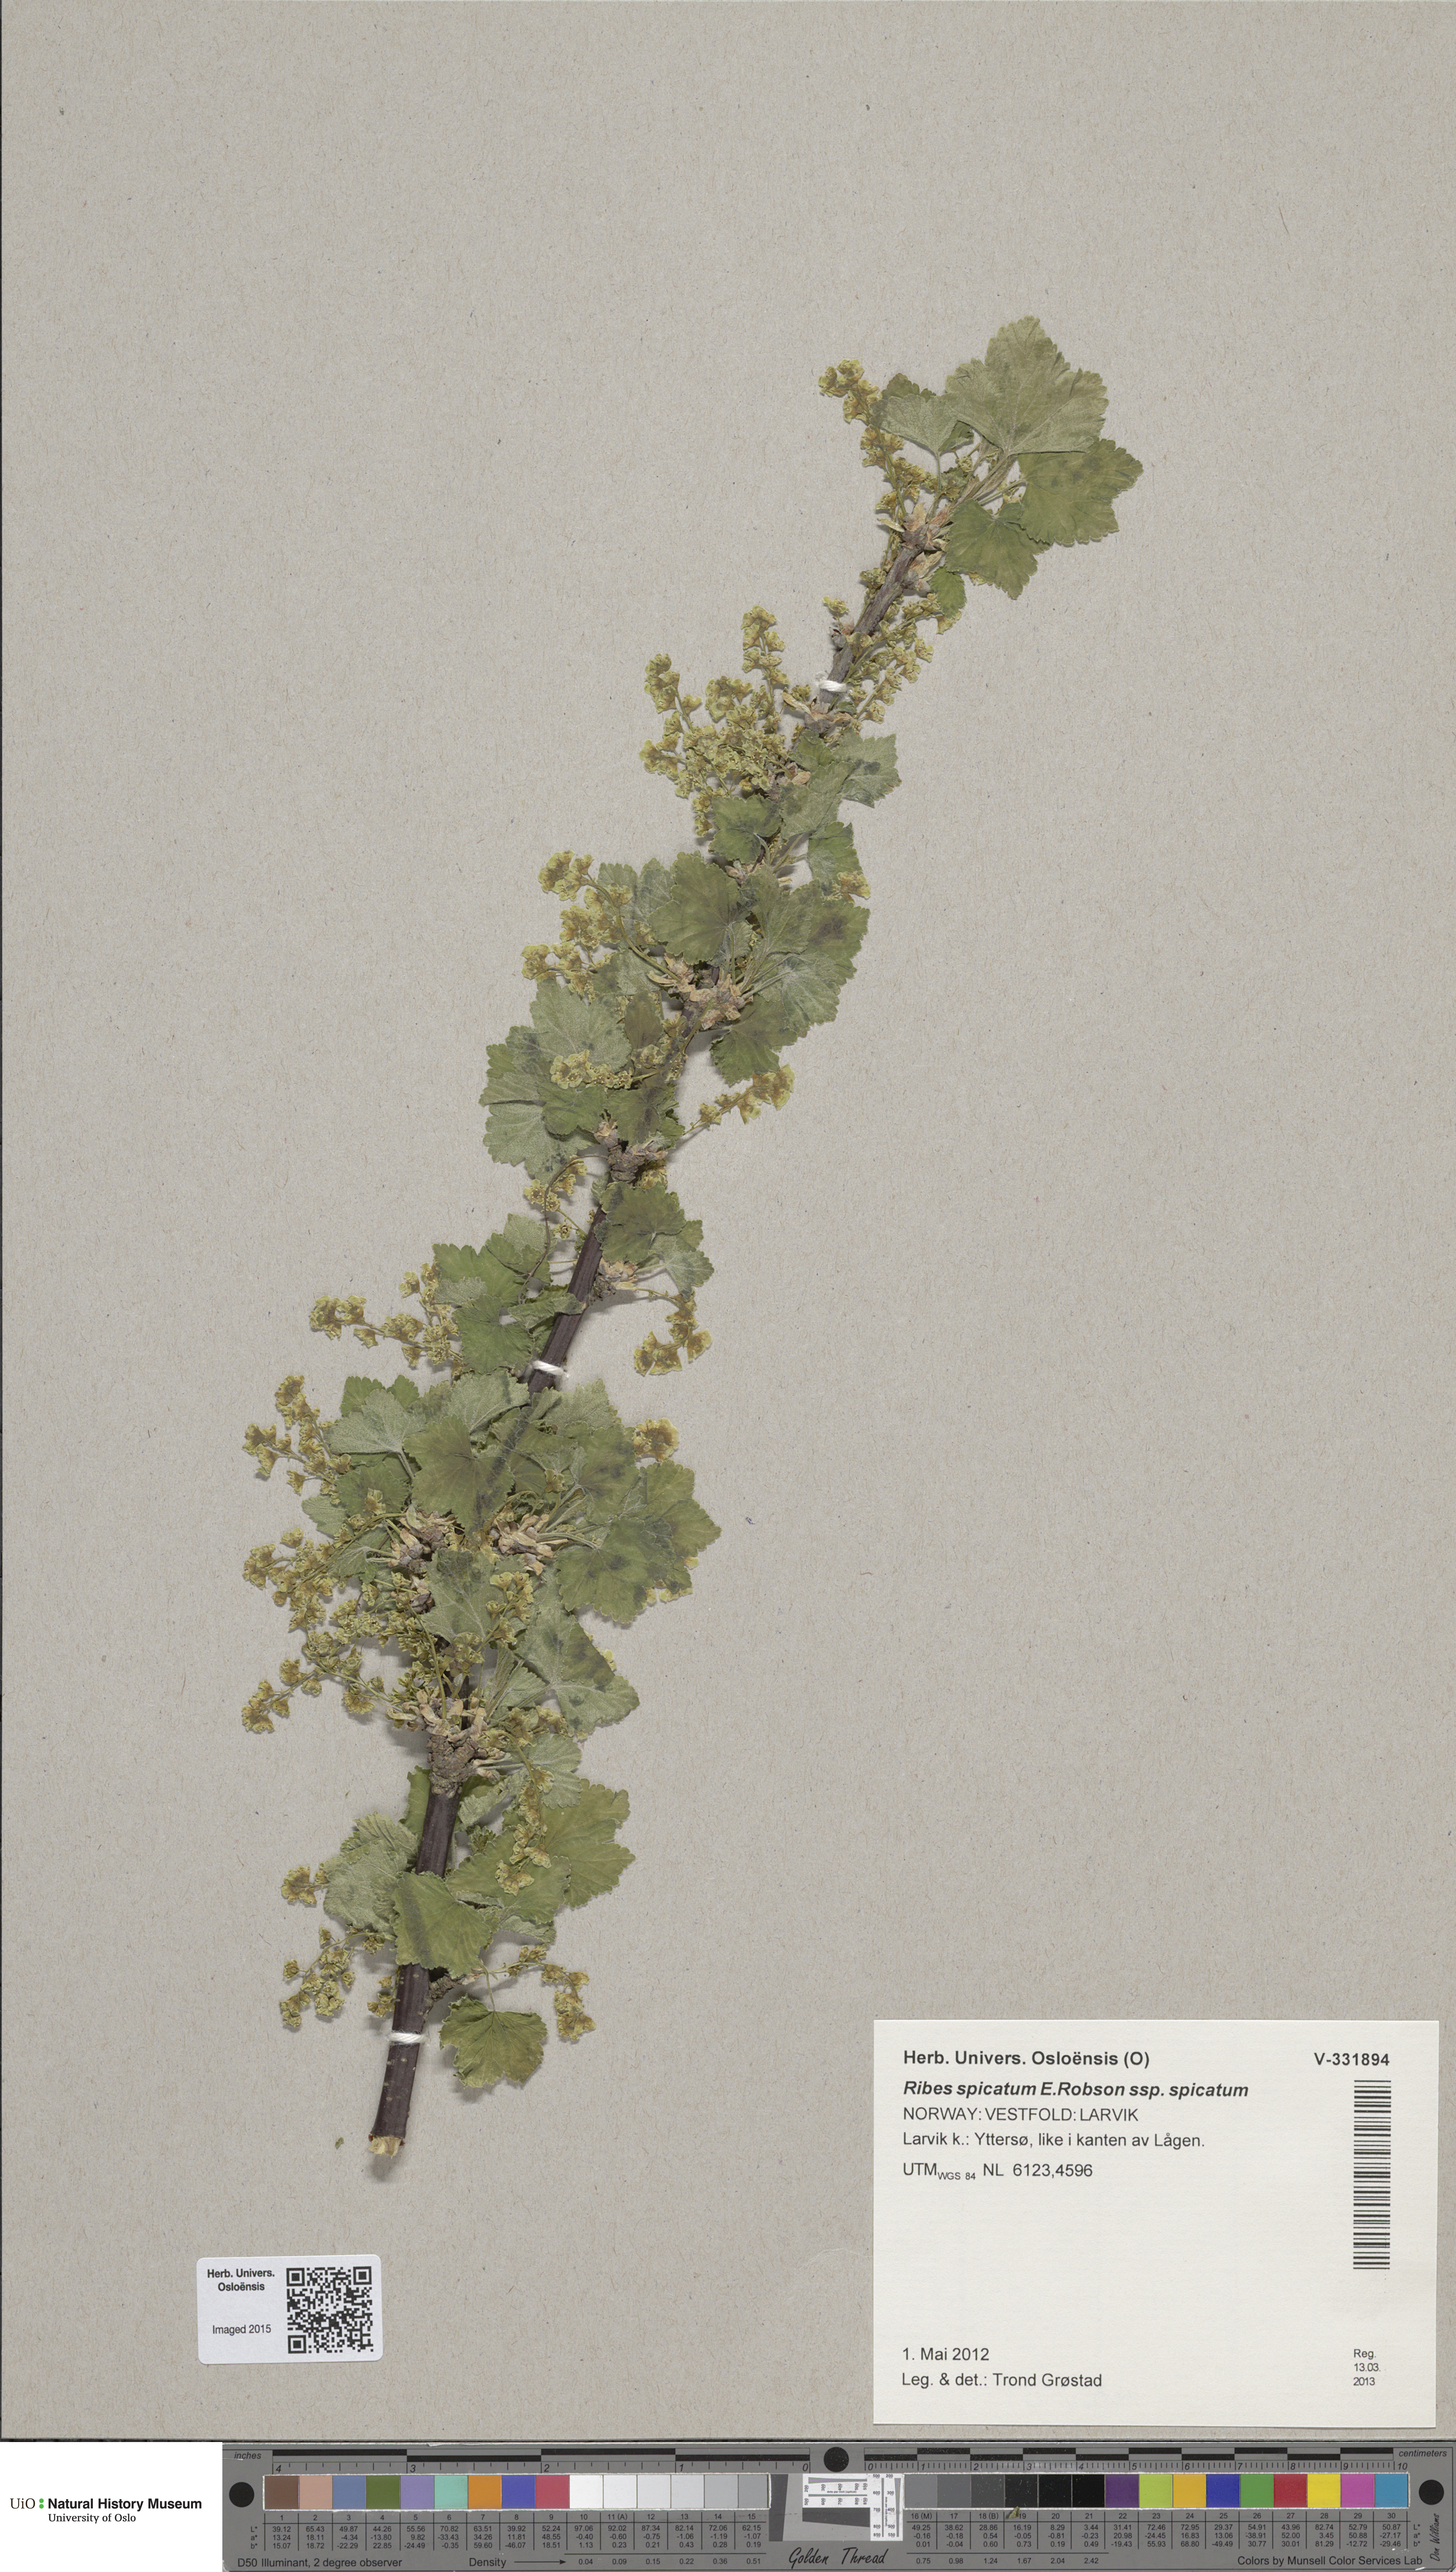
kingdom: Plantae
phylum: Tracheophyta
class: Magnoliopsida
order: Saxifragales
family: Grossulariaceae
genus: Ribes
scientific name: Ribes spicatum
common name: Downy currant
